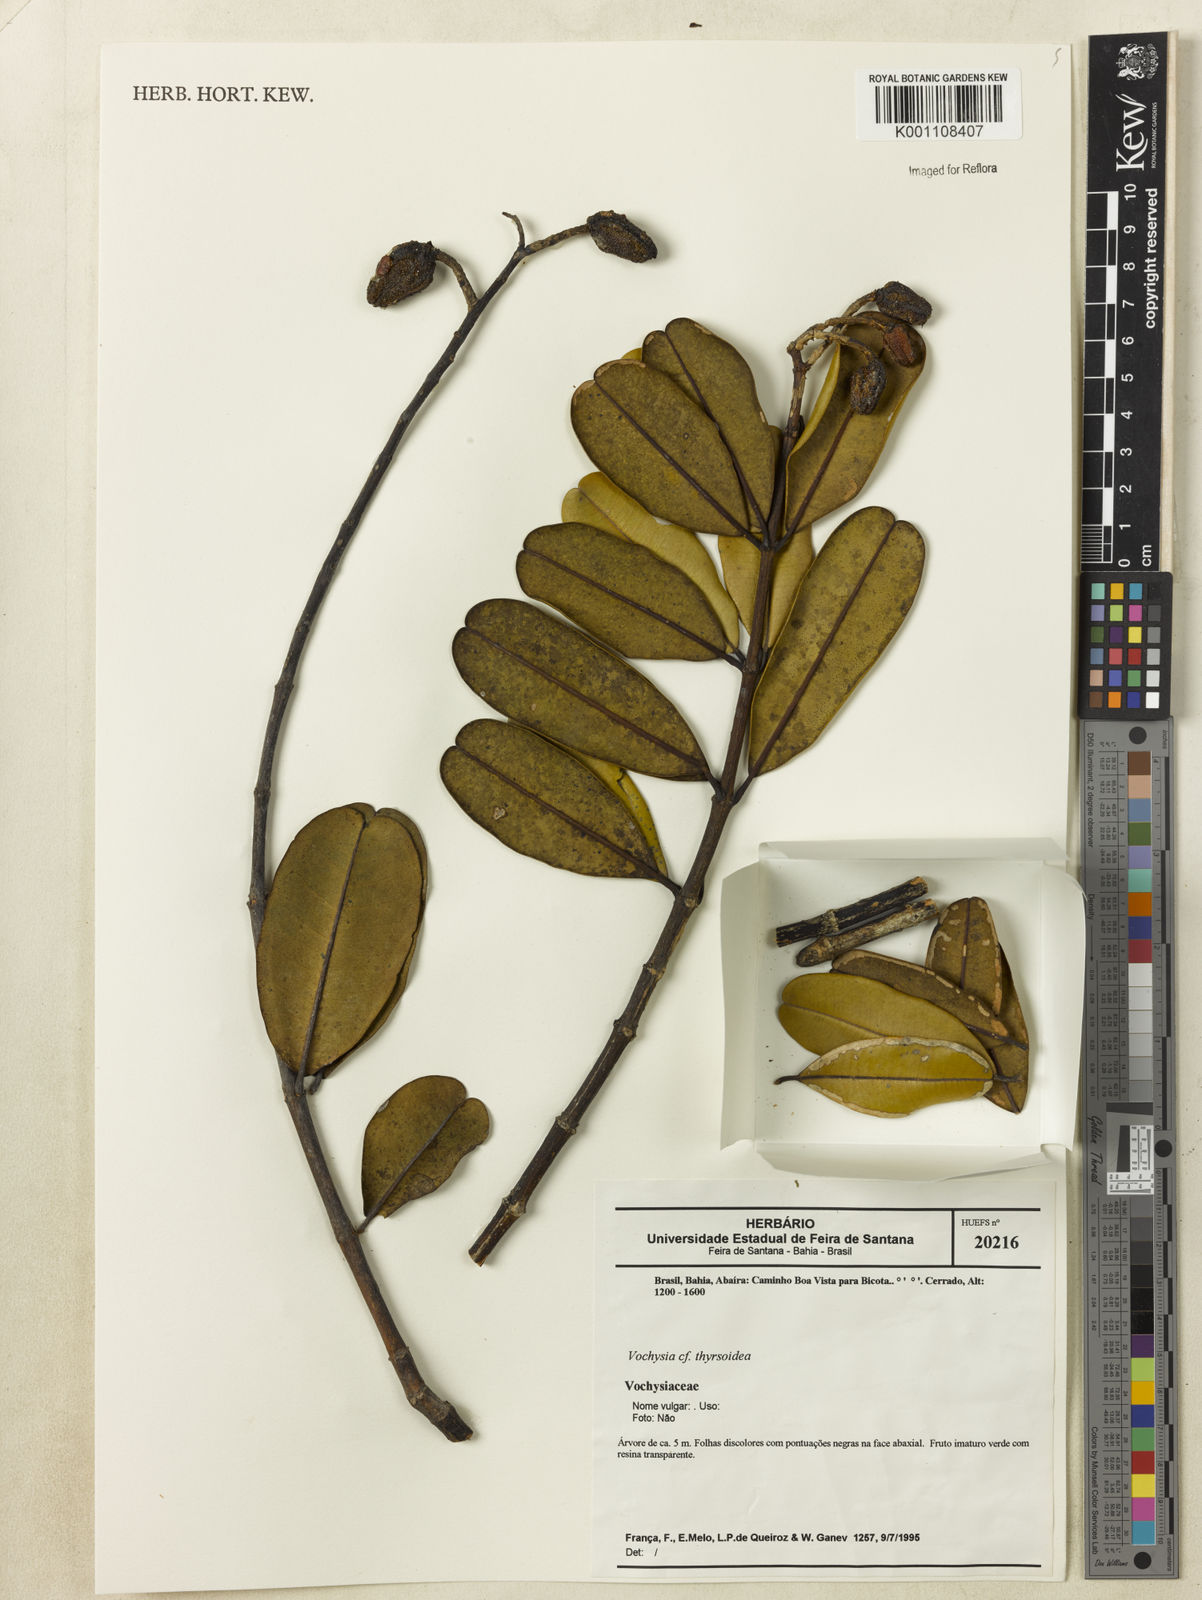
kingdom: Plantae
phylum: Tracheophyta
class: Magnoliopsida
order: Myrtales
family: Vochysiaceae
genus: Vochysia
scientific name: Vochysia thyrsoidea
